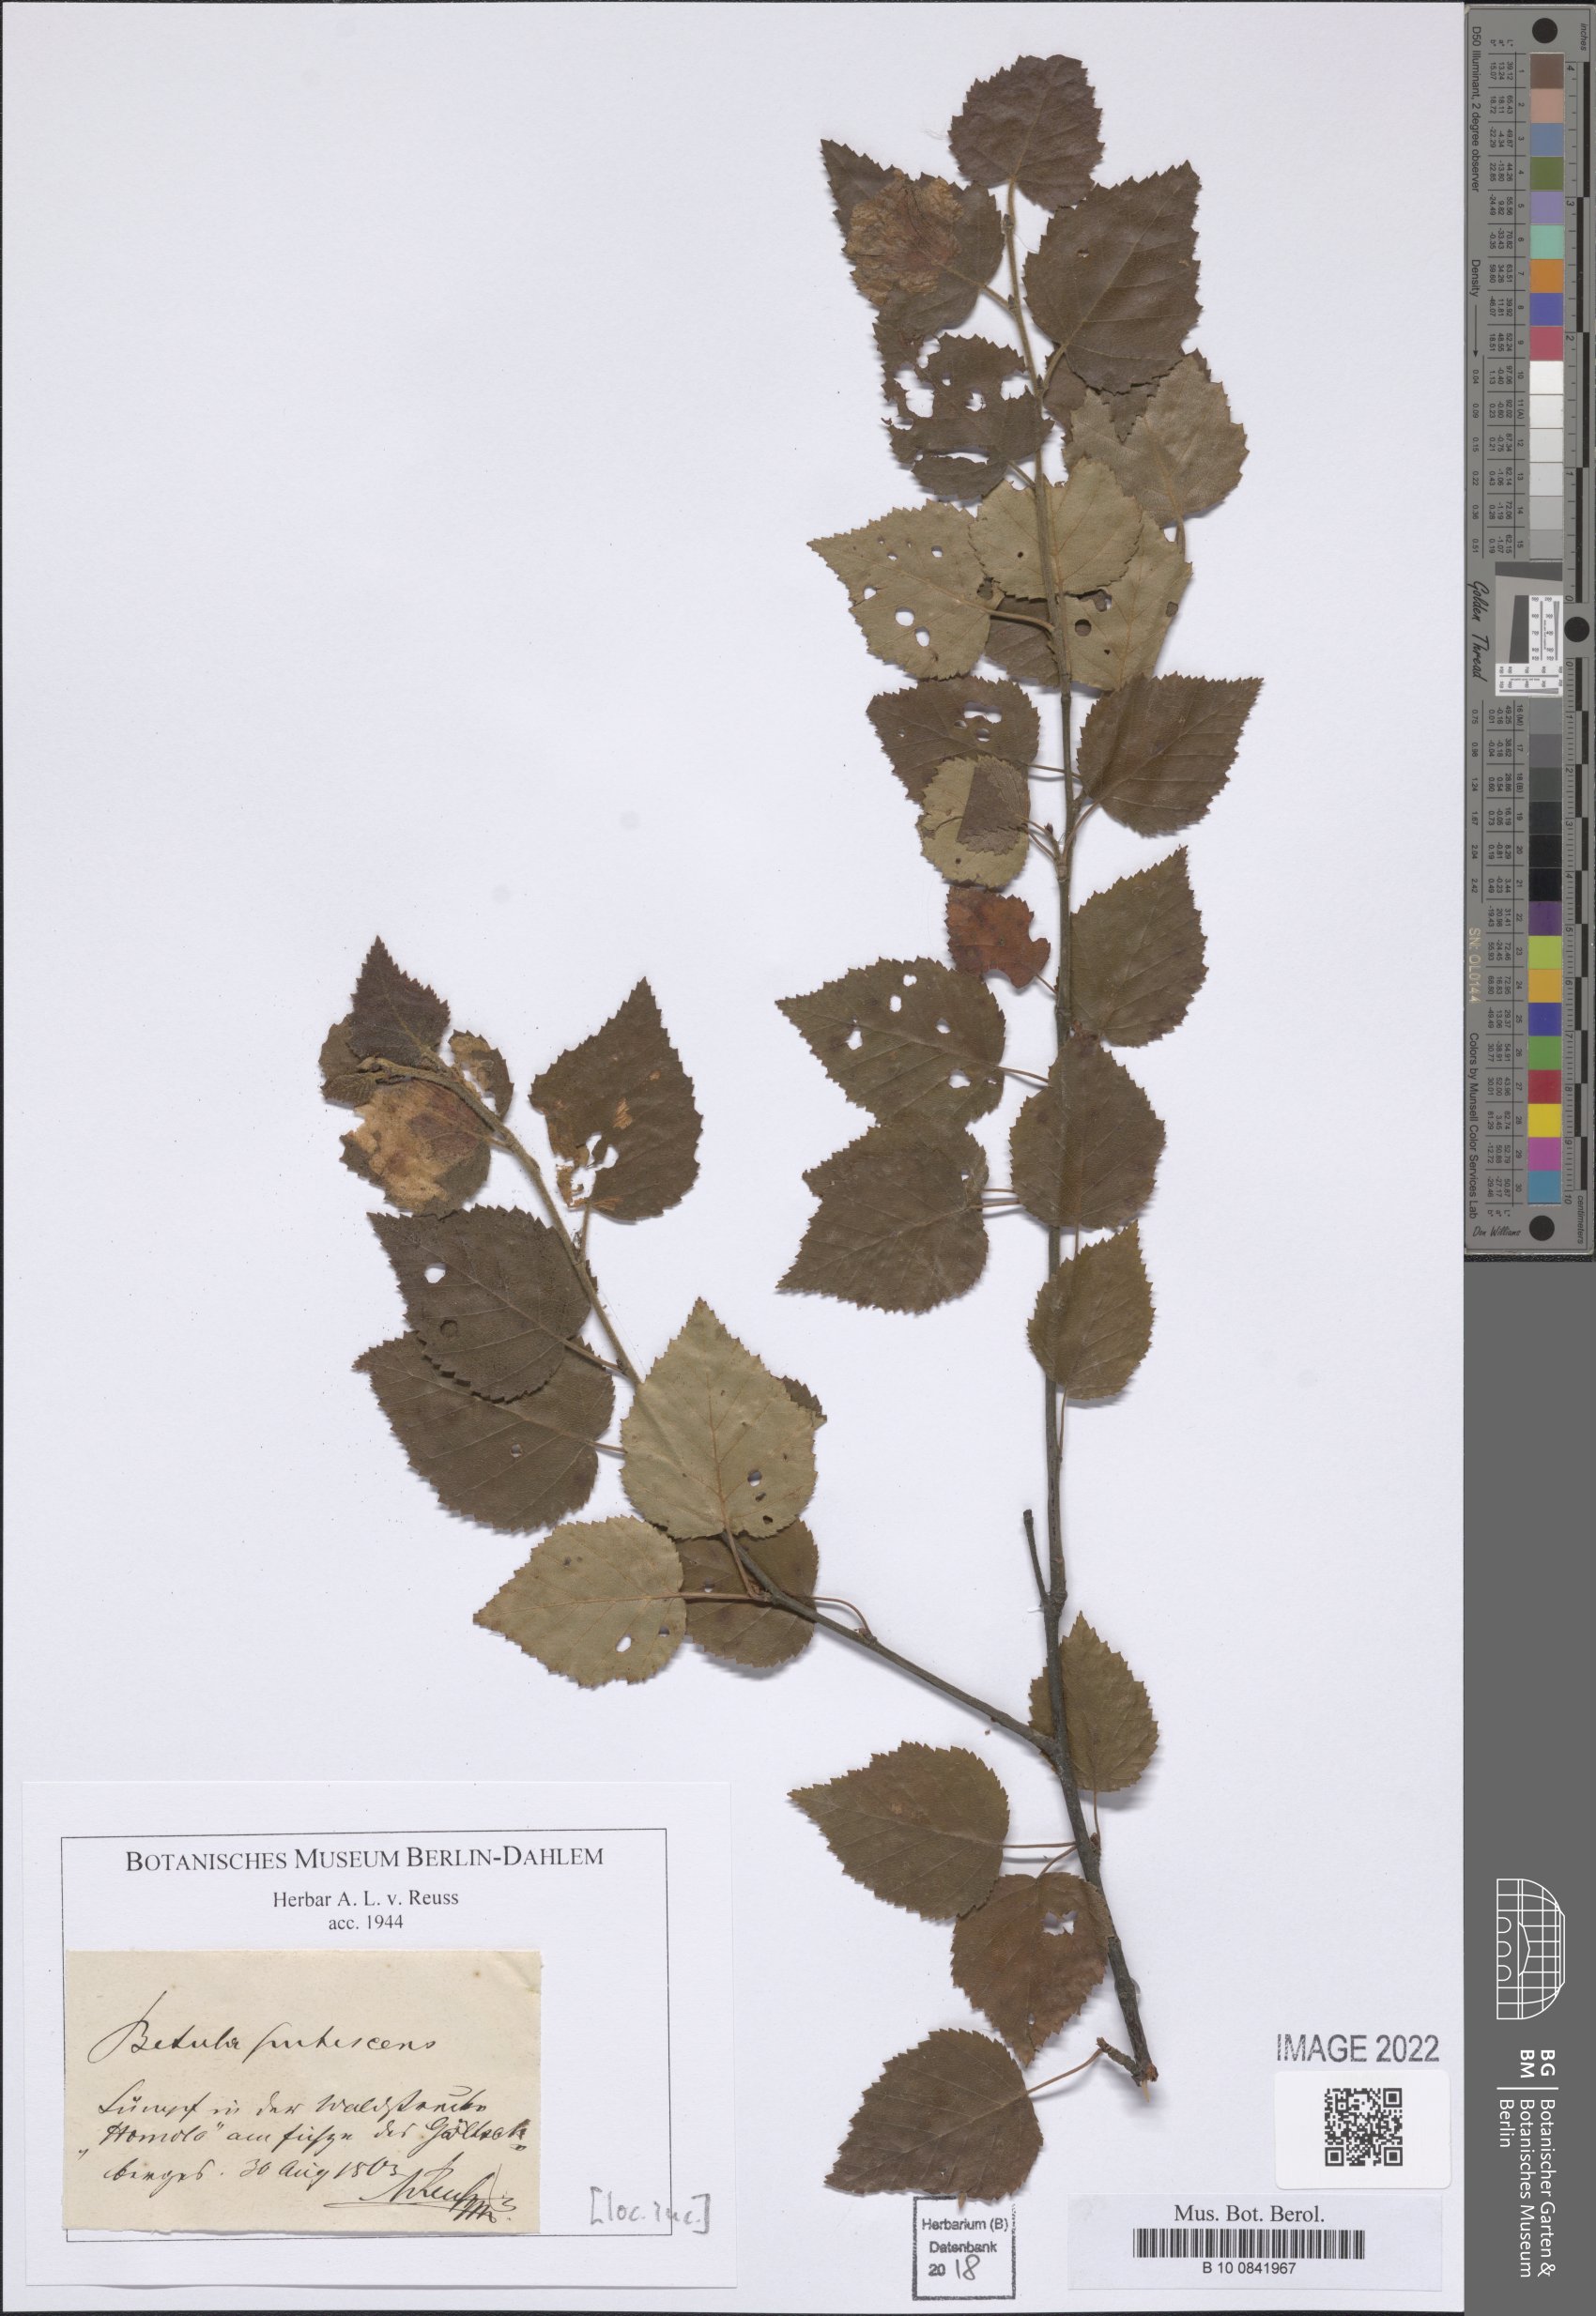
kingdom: Plantae
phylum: Tracheophyta
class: Magnoliopsida
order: Fagales
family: Betulaceae
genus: Betula
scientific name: Betula pubescens
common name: Downy birch
